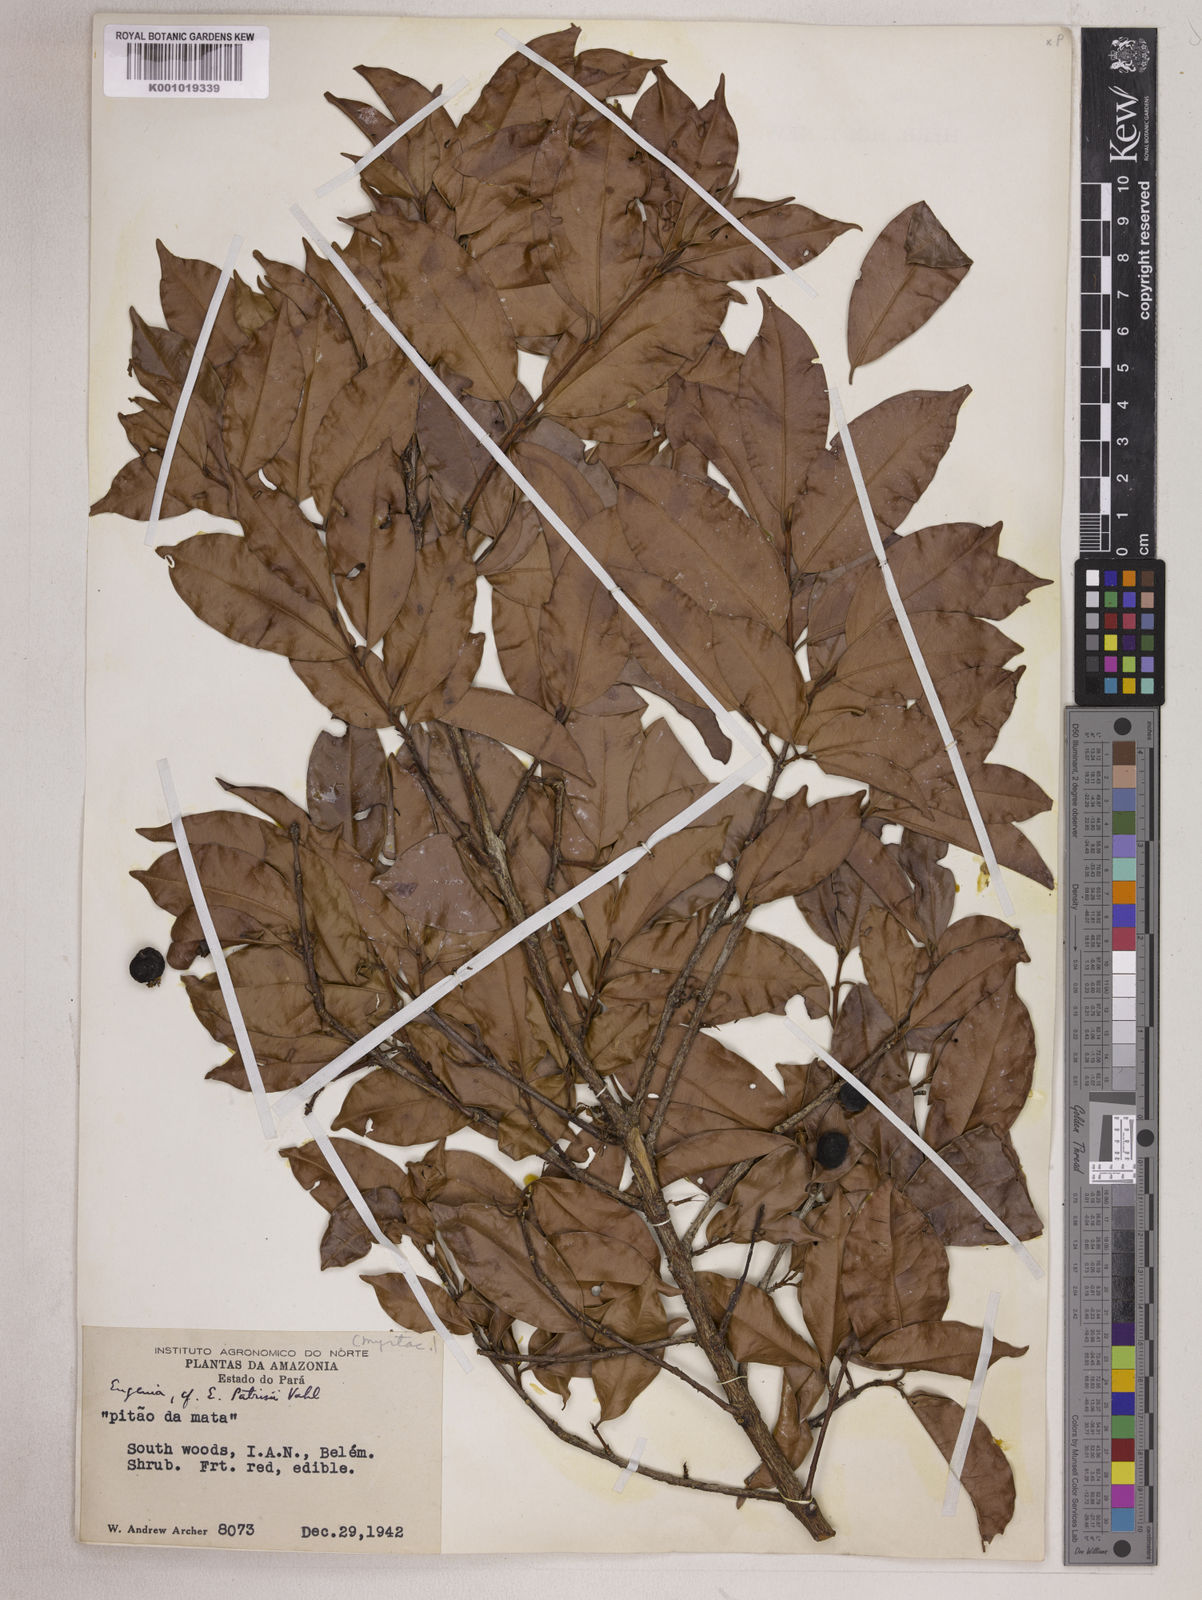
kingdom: Plantae
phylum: Tracheophyta
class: Magnoliopsida
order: Myrtales
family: Myrtaceae
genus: Eugenia
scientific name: Eugenia patrisii
